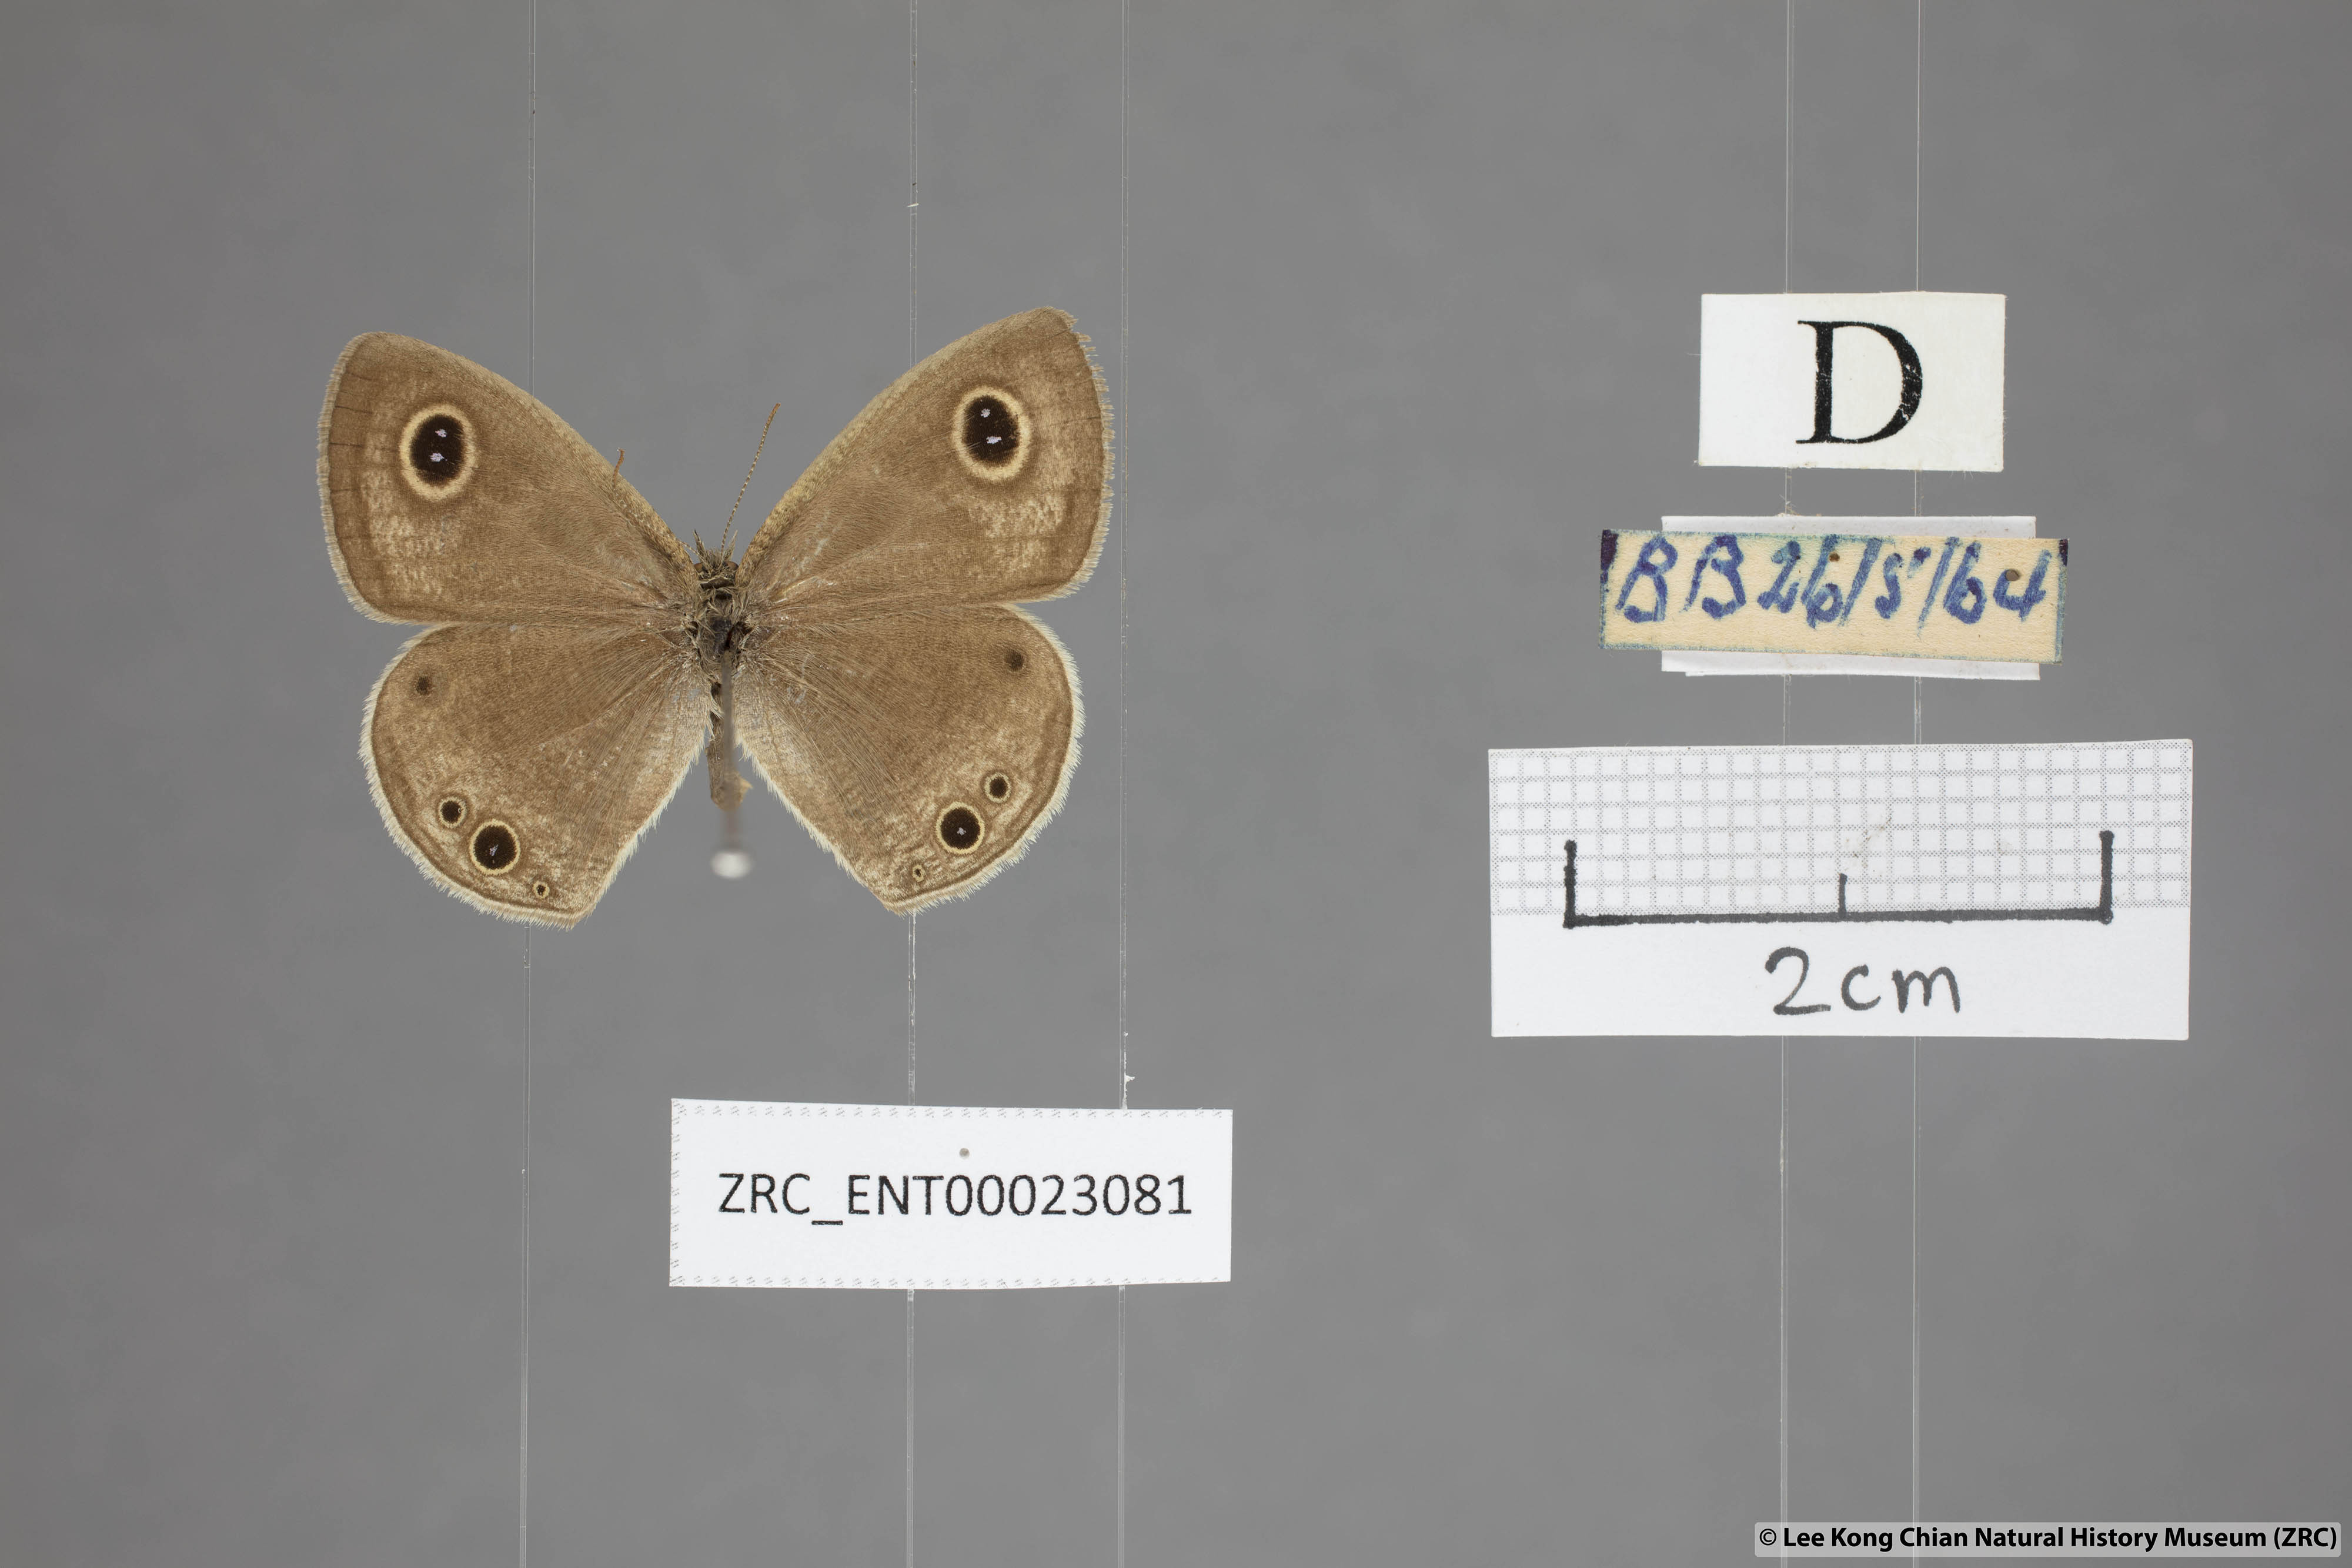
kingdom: Animalia
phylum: Arthropoda
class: Insecta
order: Lepidoptera
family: Nymphalidae
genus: Ypthima
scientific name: Ypthima huebneri
